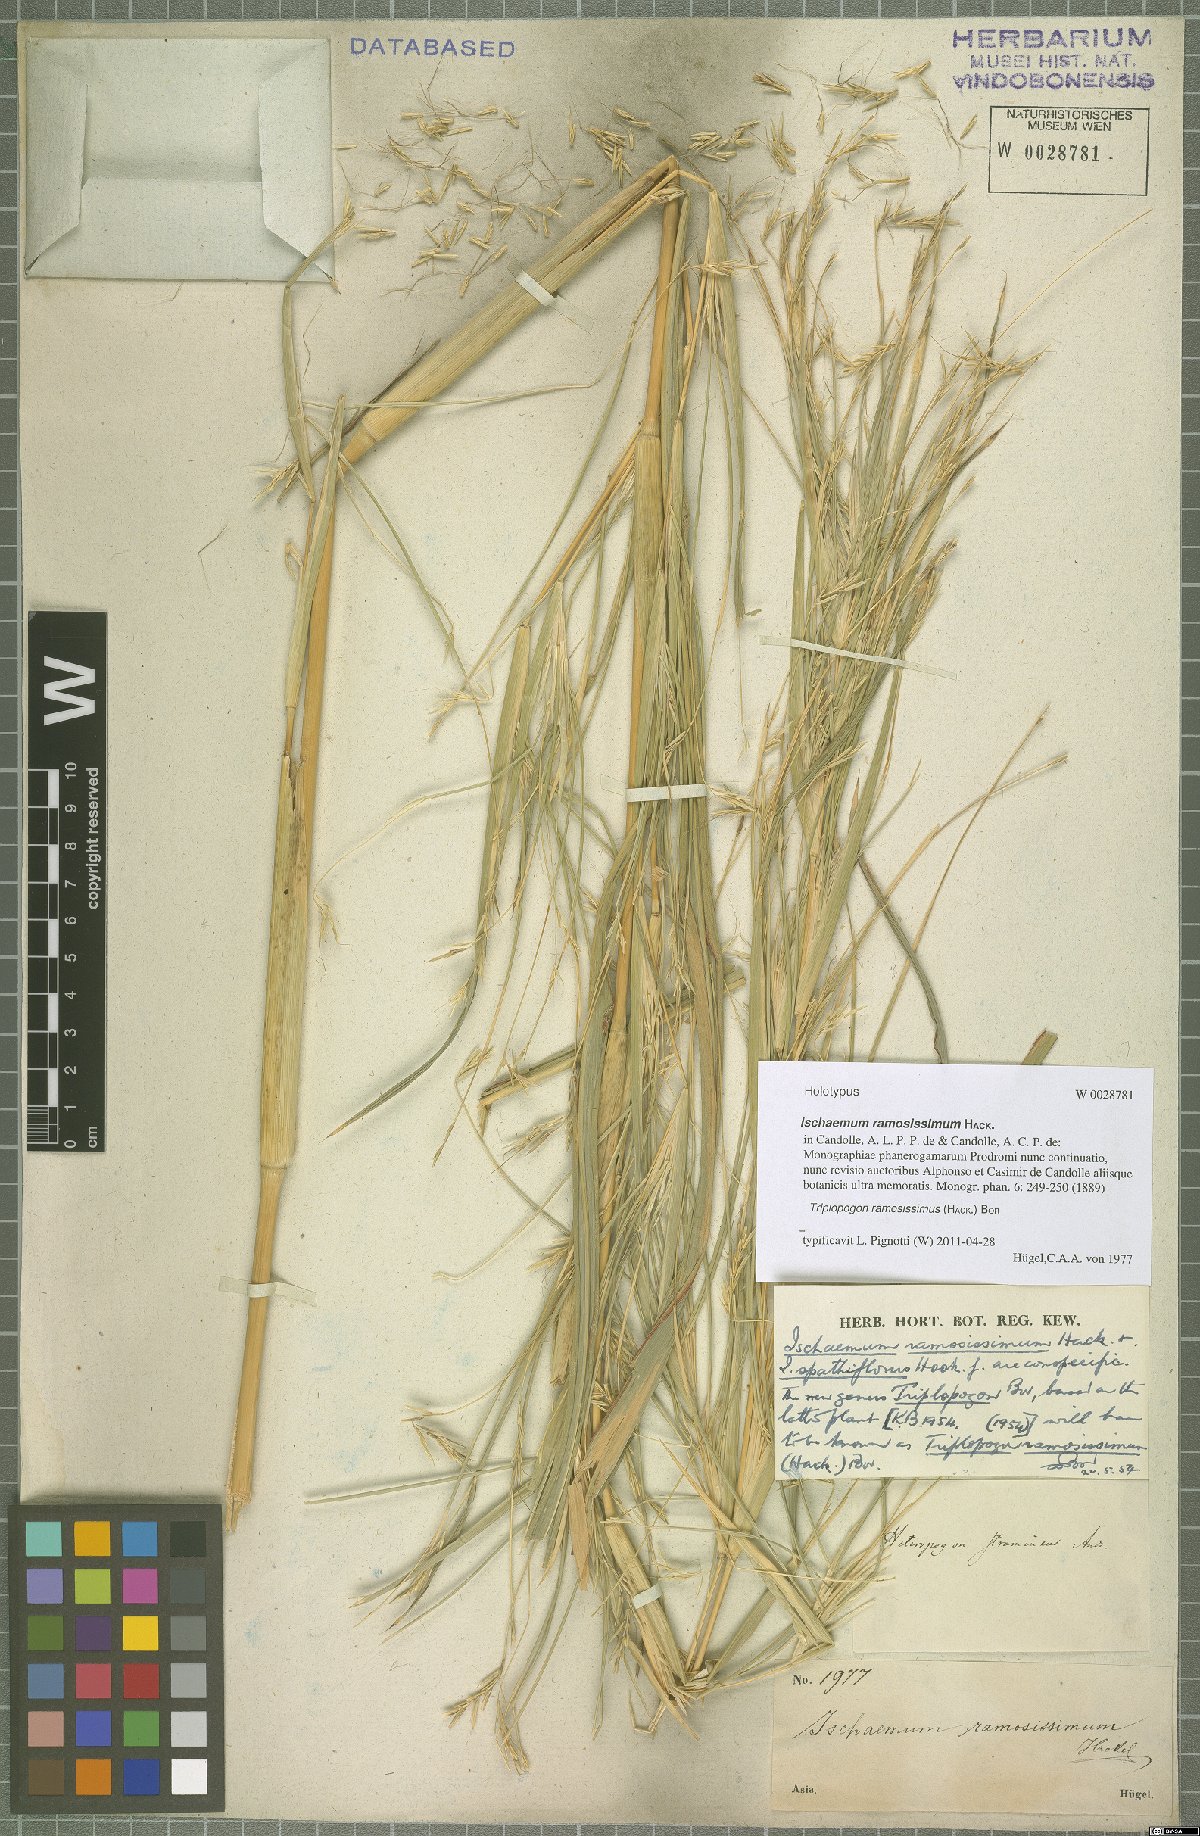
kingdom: Plantae
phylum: Tracheophyta
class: Liliopsida
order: Poales
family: Poaceae
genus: Triplopogon
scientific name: Triplopogon ramosissimus
